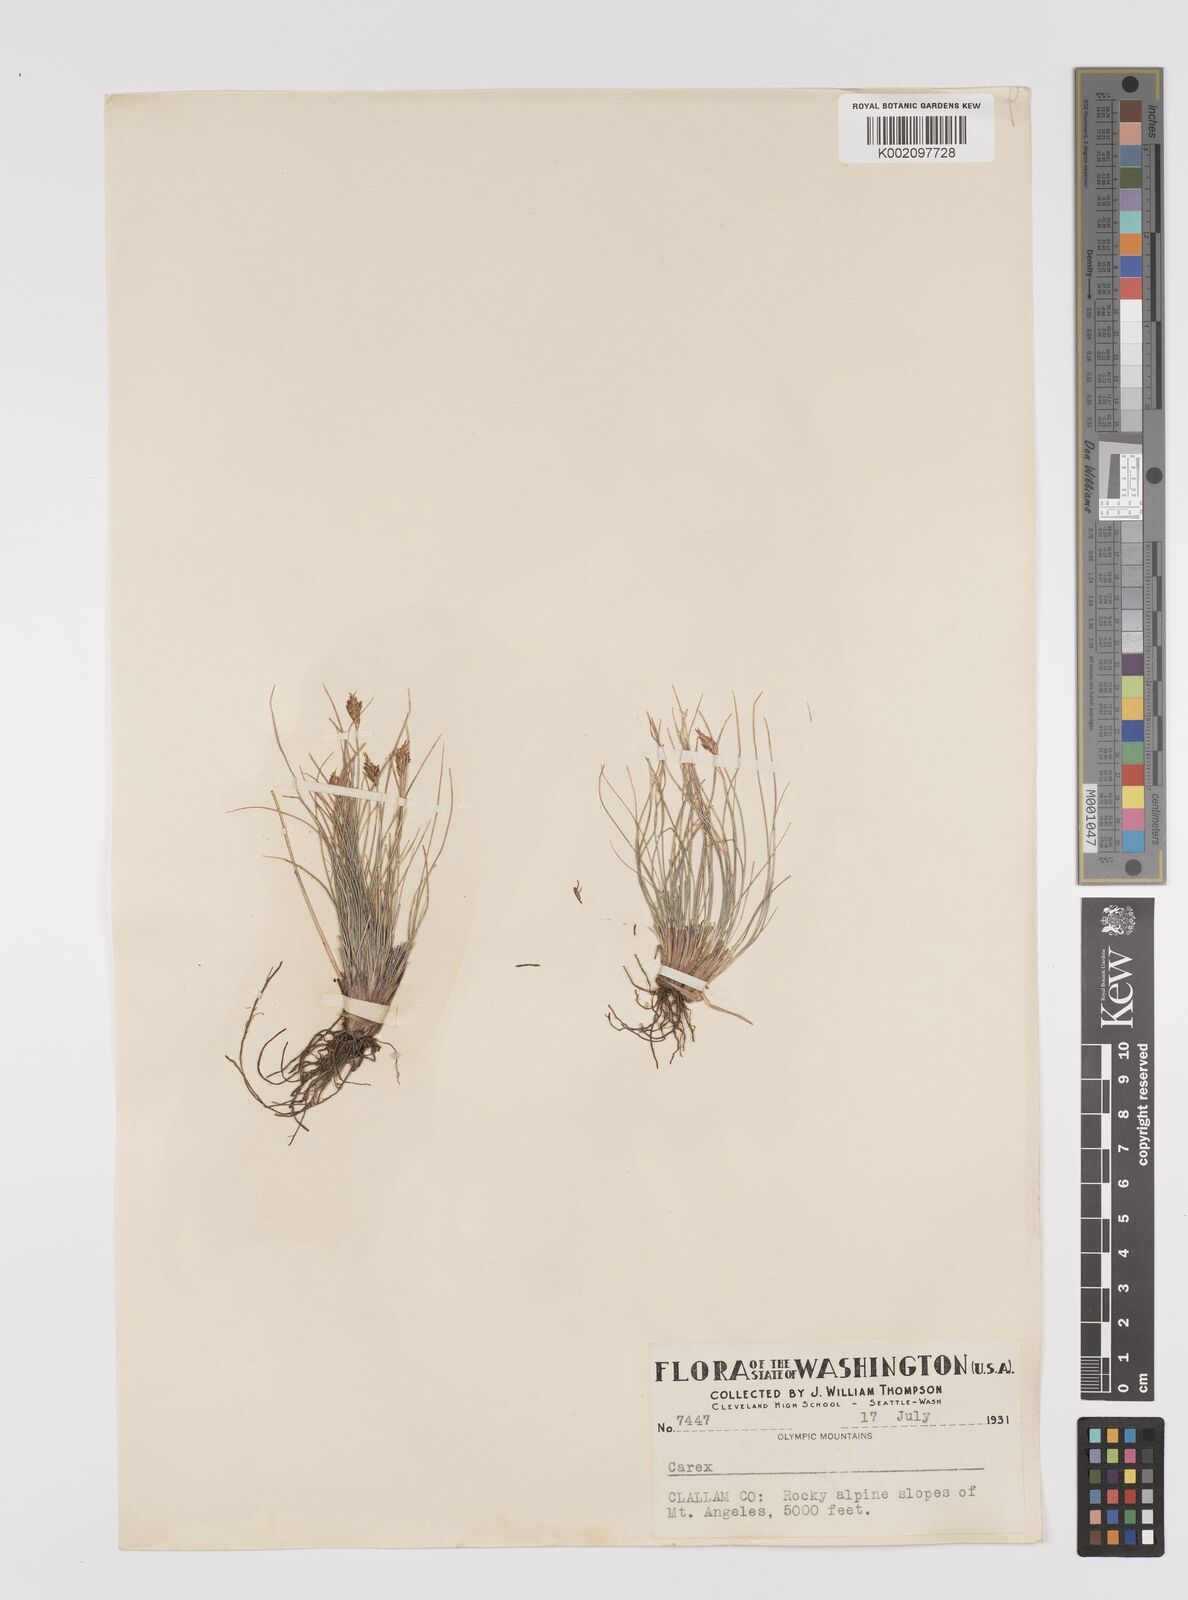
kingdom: Plantae
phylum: Tracheophyta
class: Liliopsida
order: Poales
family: Cyperaceae
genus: Carex
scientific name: Carex nardina
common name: Nard sedge
